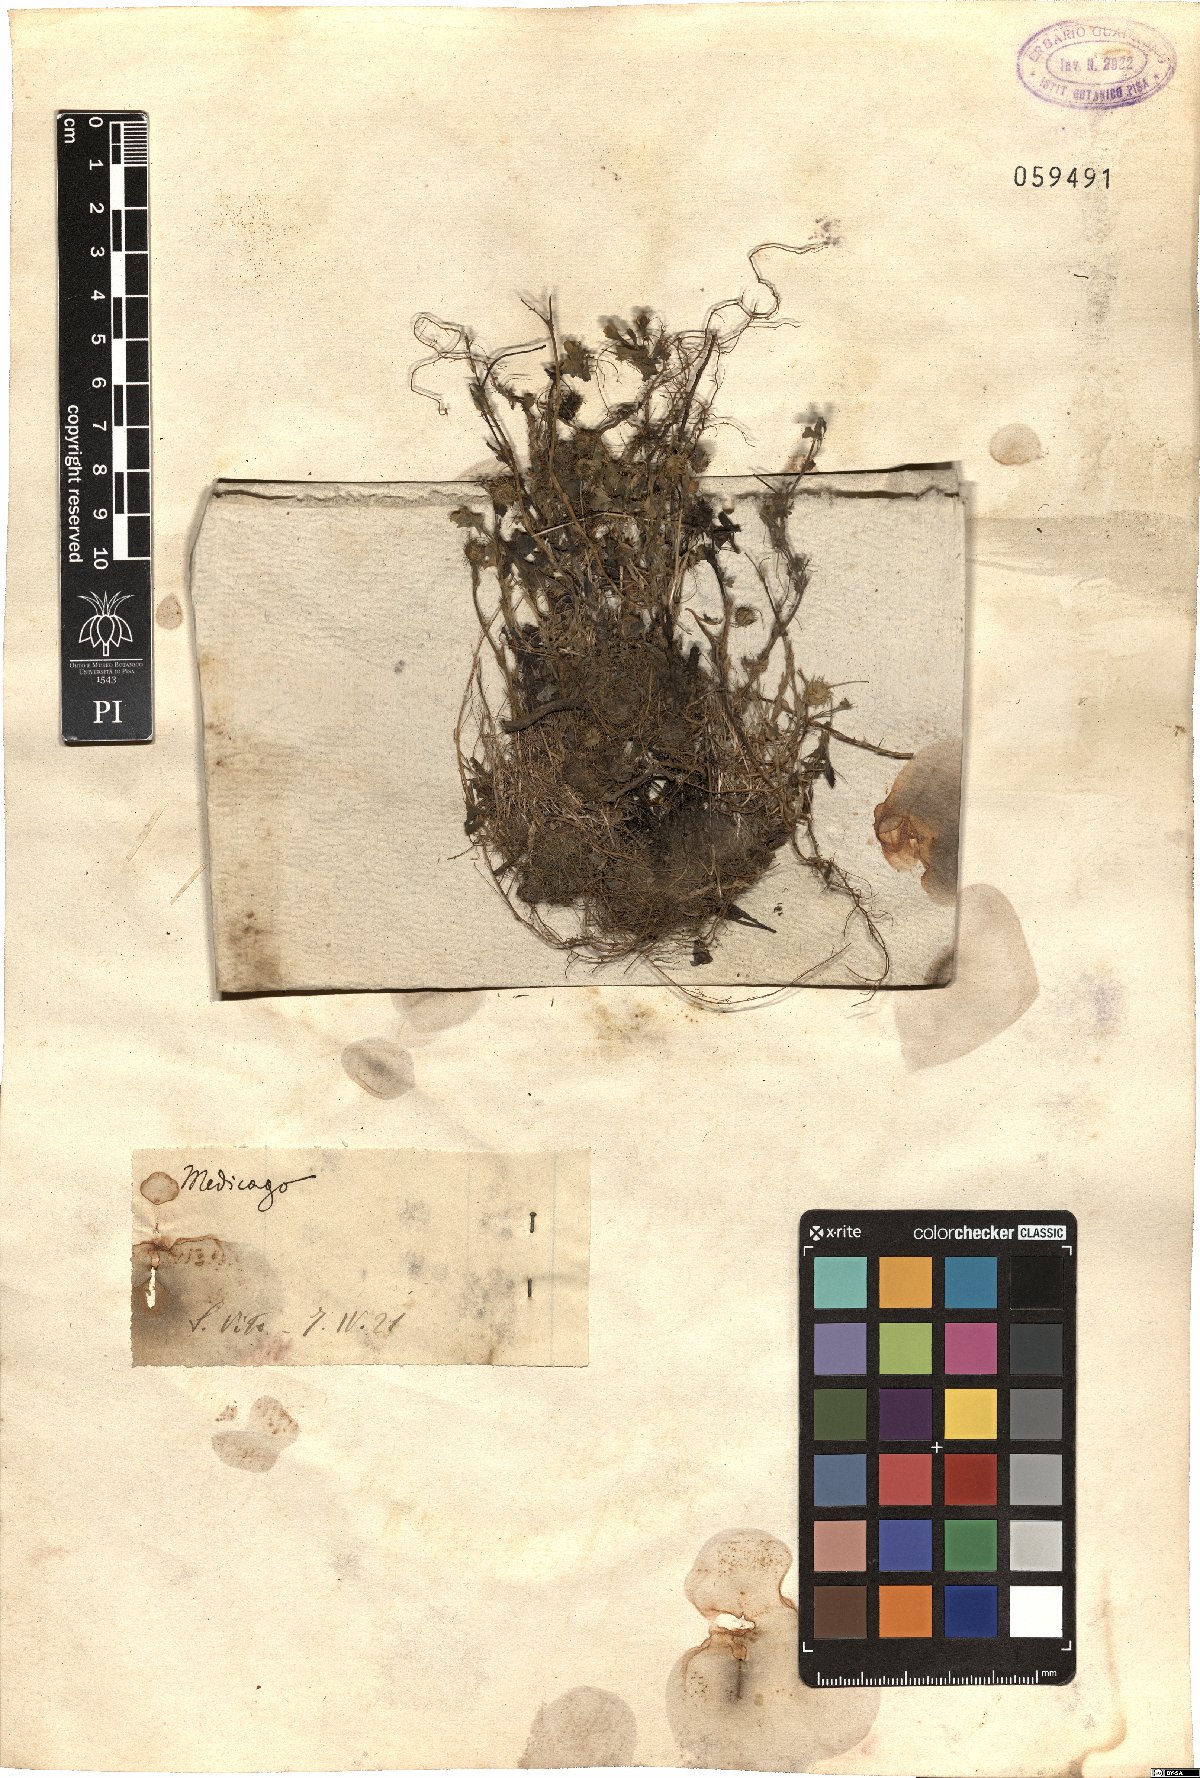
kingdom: Plantae
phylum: Tracheophyta
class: Magnoliopsida
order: Fabales
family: Fabaceae
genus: Medicago
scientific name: Medicago
